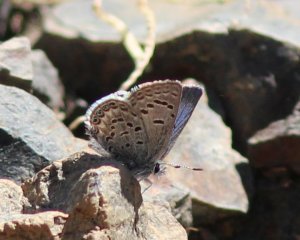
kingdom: Animalia
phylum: Arthropoda
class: Insecta
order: Lepidoptera
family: Lycaenidae
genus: Plebejus
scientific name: Plebejus shasta
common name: Shasta Blue
